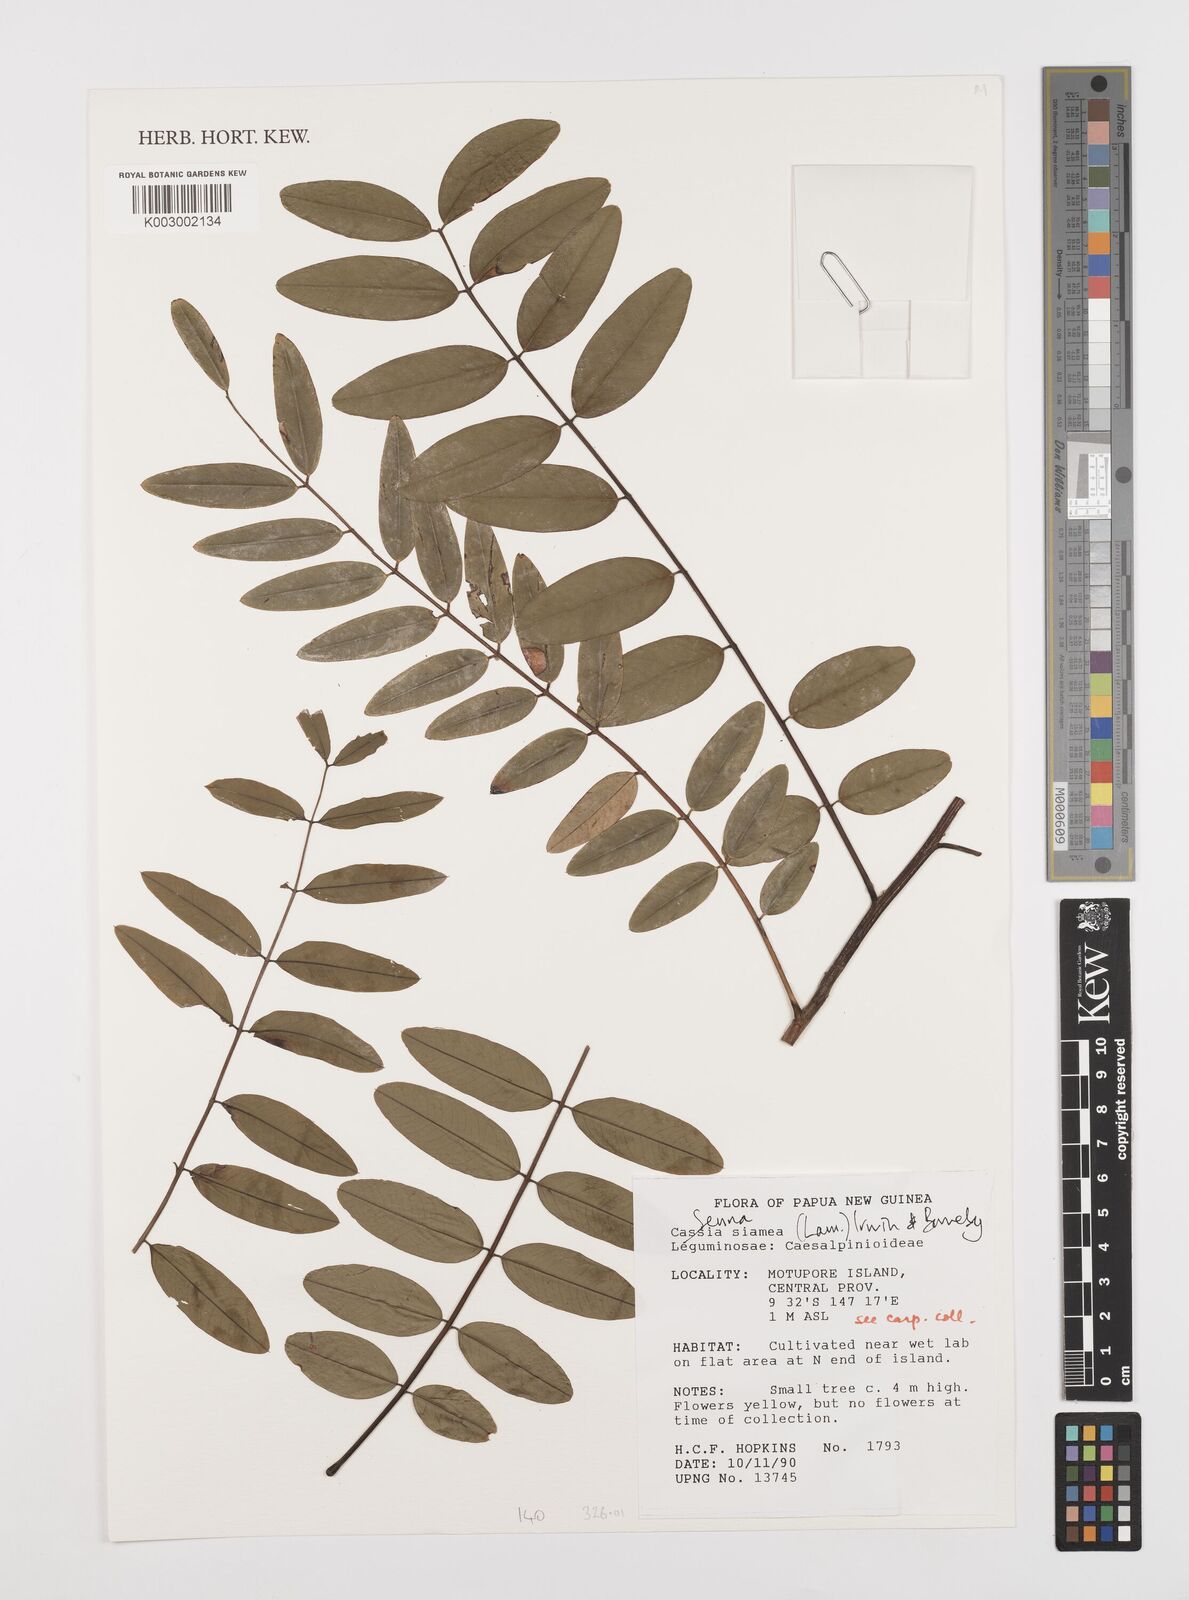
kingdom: Plantae
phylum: Tracheophyta
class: Magnoliopsida
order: Fabales
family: Fabaceae
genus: Cassia
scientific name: Cassia
